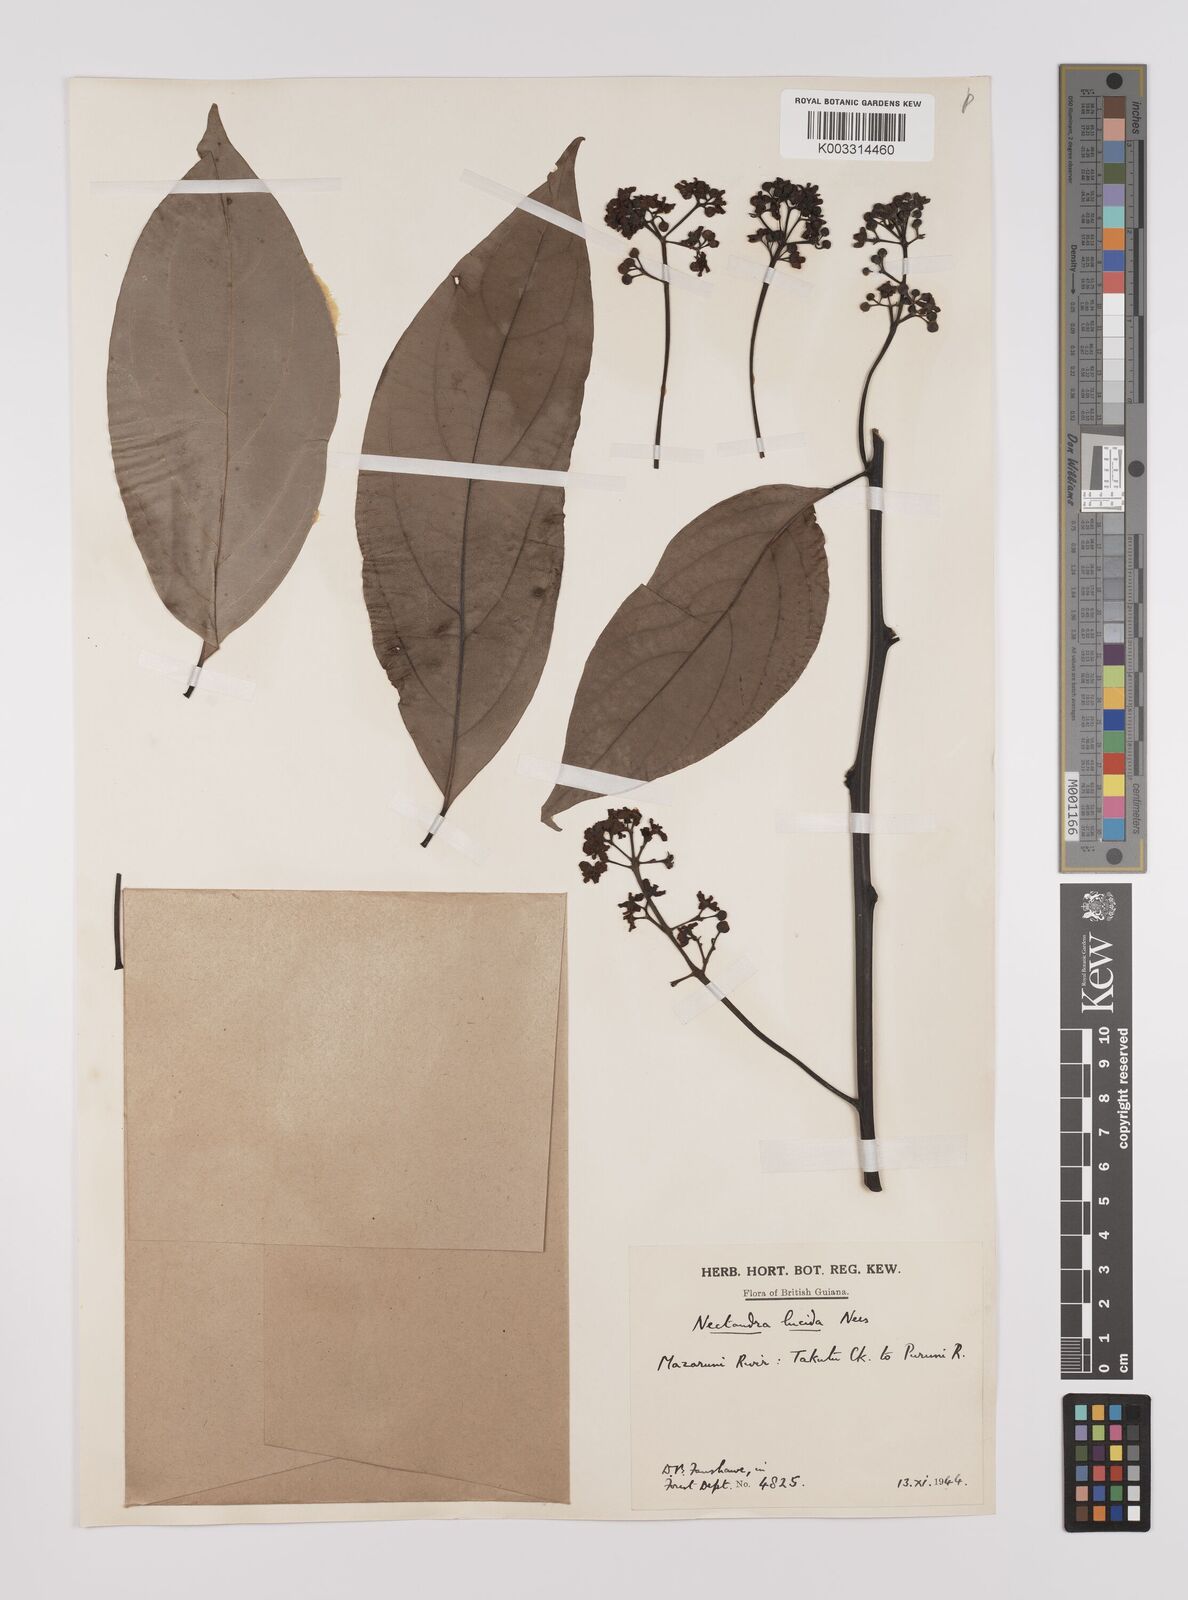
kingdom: Plantae
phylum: Tracheophyta
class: Magnoliopsida
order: Laurales
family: Lauraceae
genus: Endlicheria
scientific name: Endlicheria paniculata
